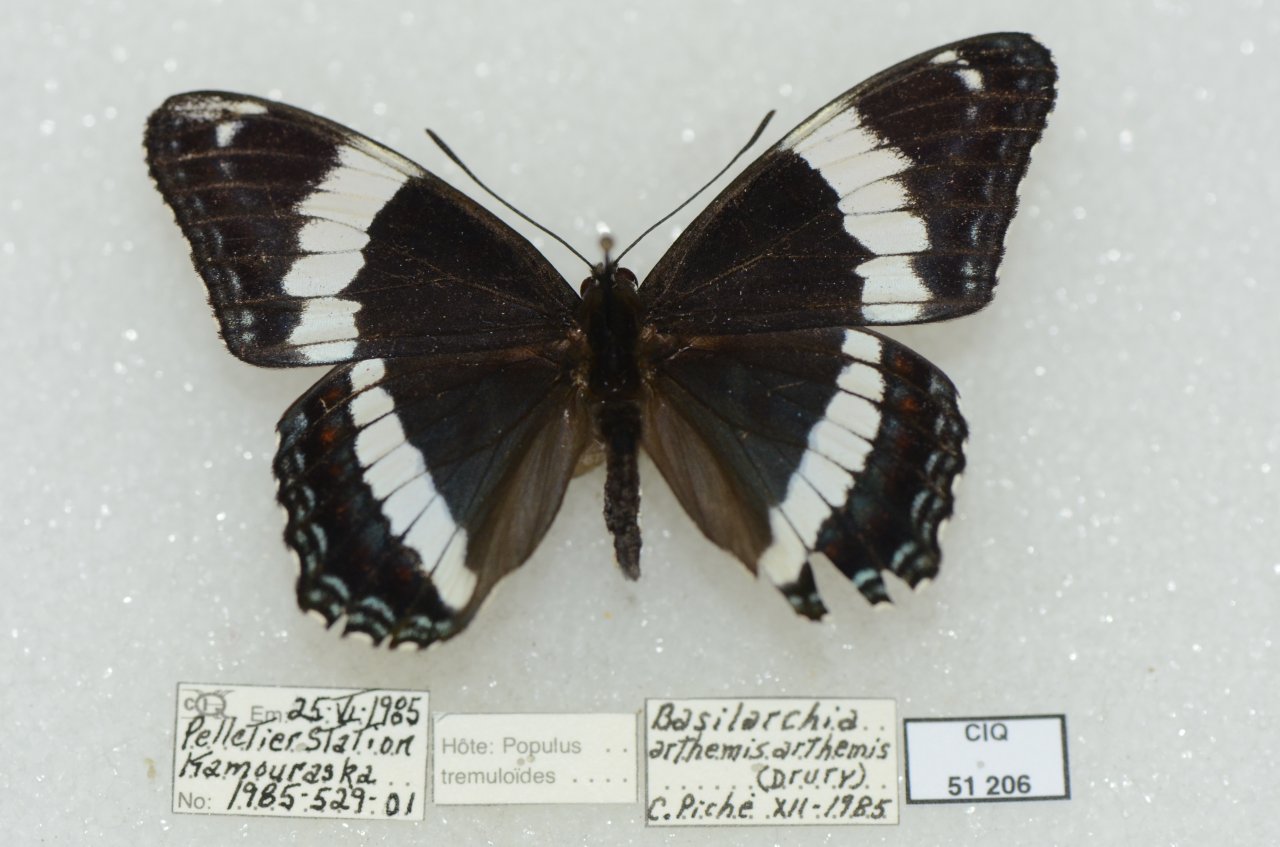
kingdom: Animalia
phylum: Arthropoda
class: Insecta
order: Lepidoptera
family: Nymphalidae
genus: Limenitis
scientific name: Limenitis arthemis
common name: Red-spotted Admiral
